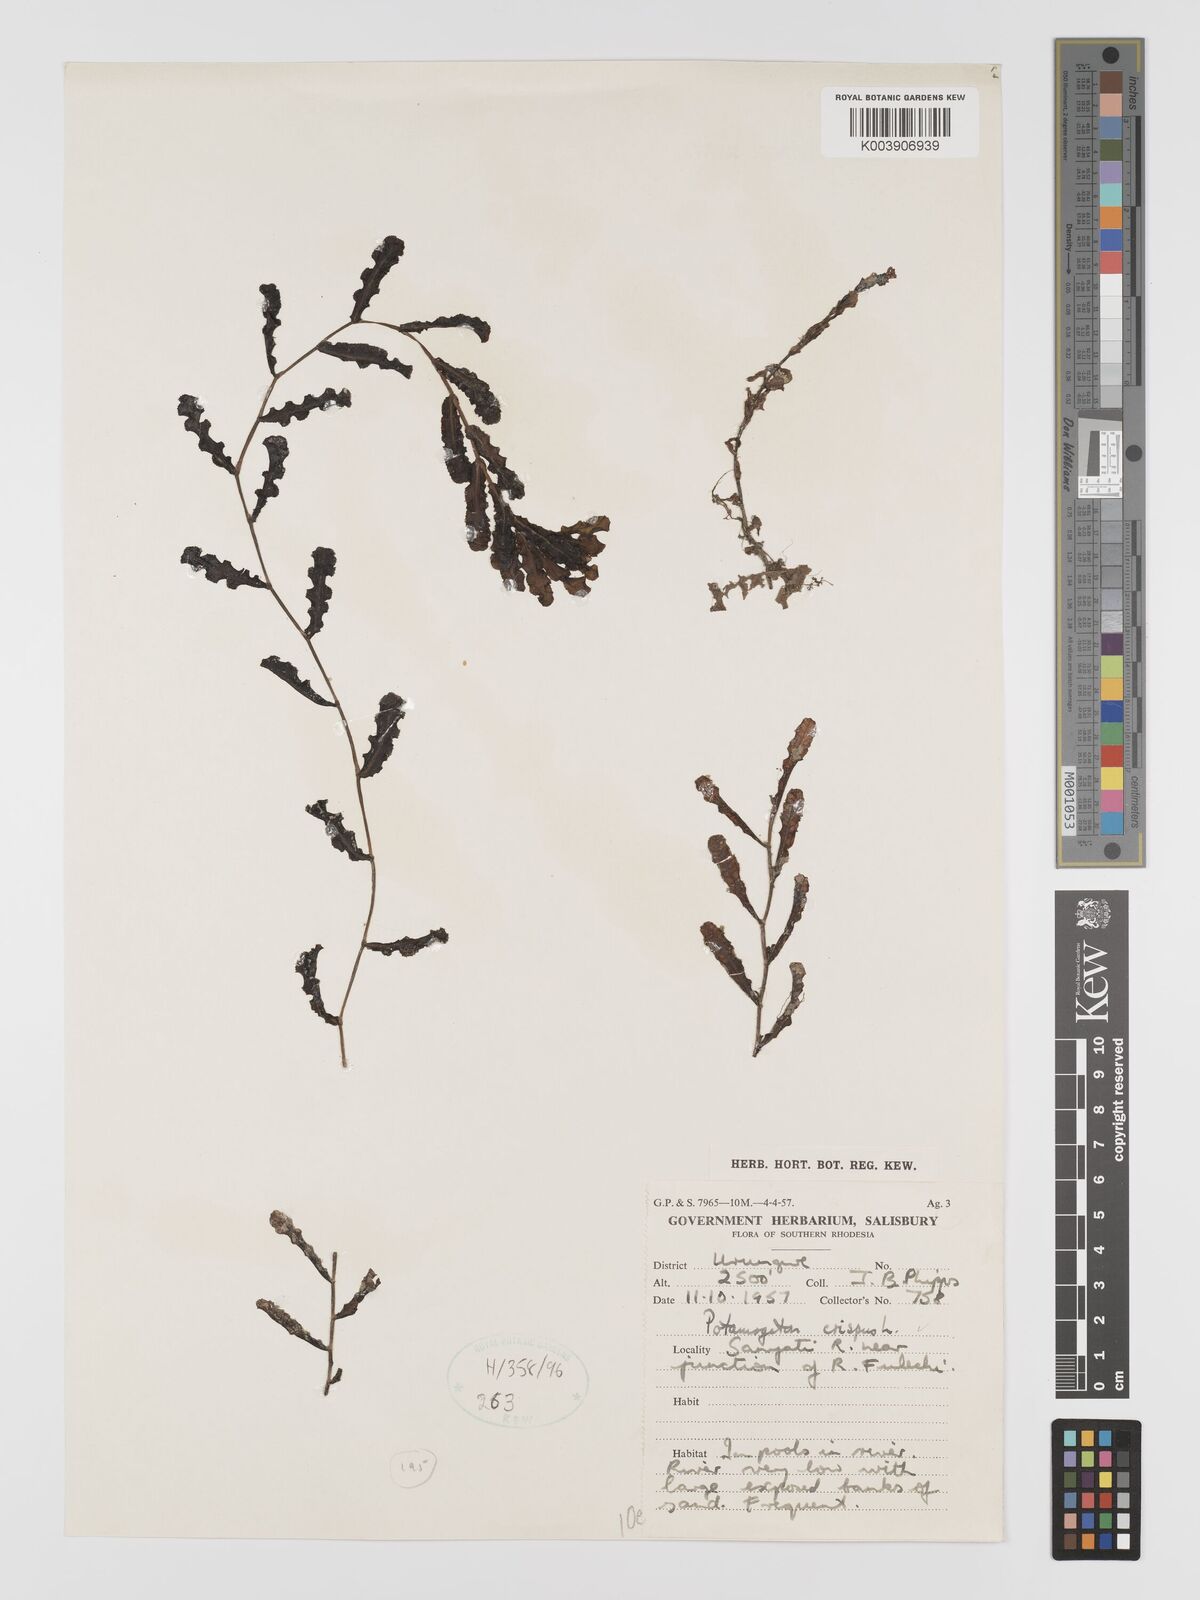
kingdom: Plantae
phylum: Tracheophyta
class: Liliopsida
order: Alismatales
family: Potamogetonaceae
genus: Potamogeton
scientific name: Potamogeton crispus
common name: Curled pondweed
